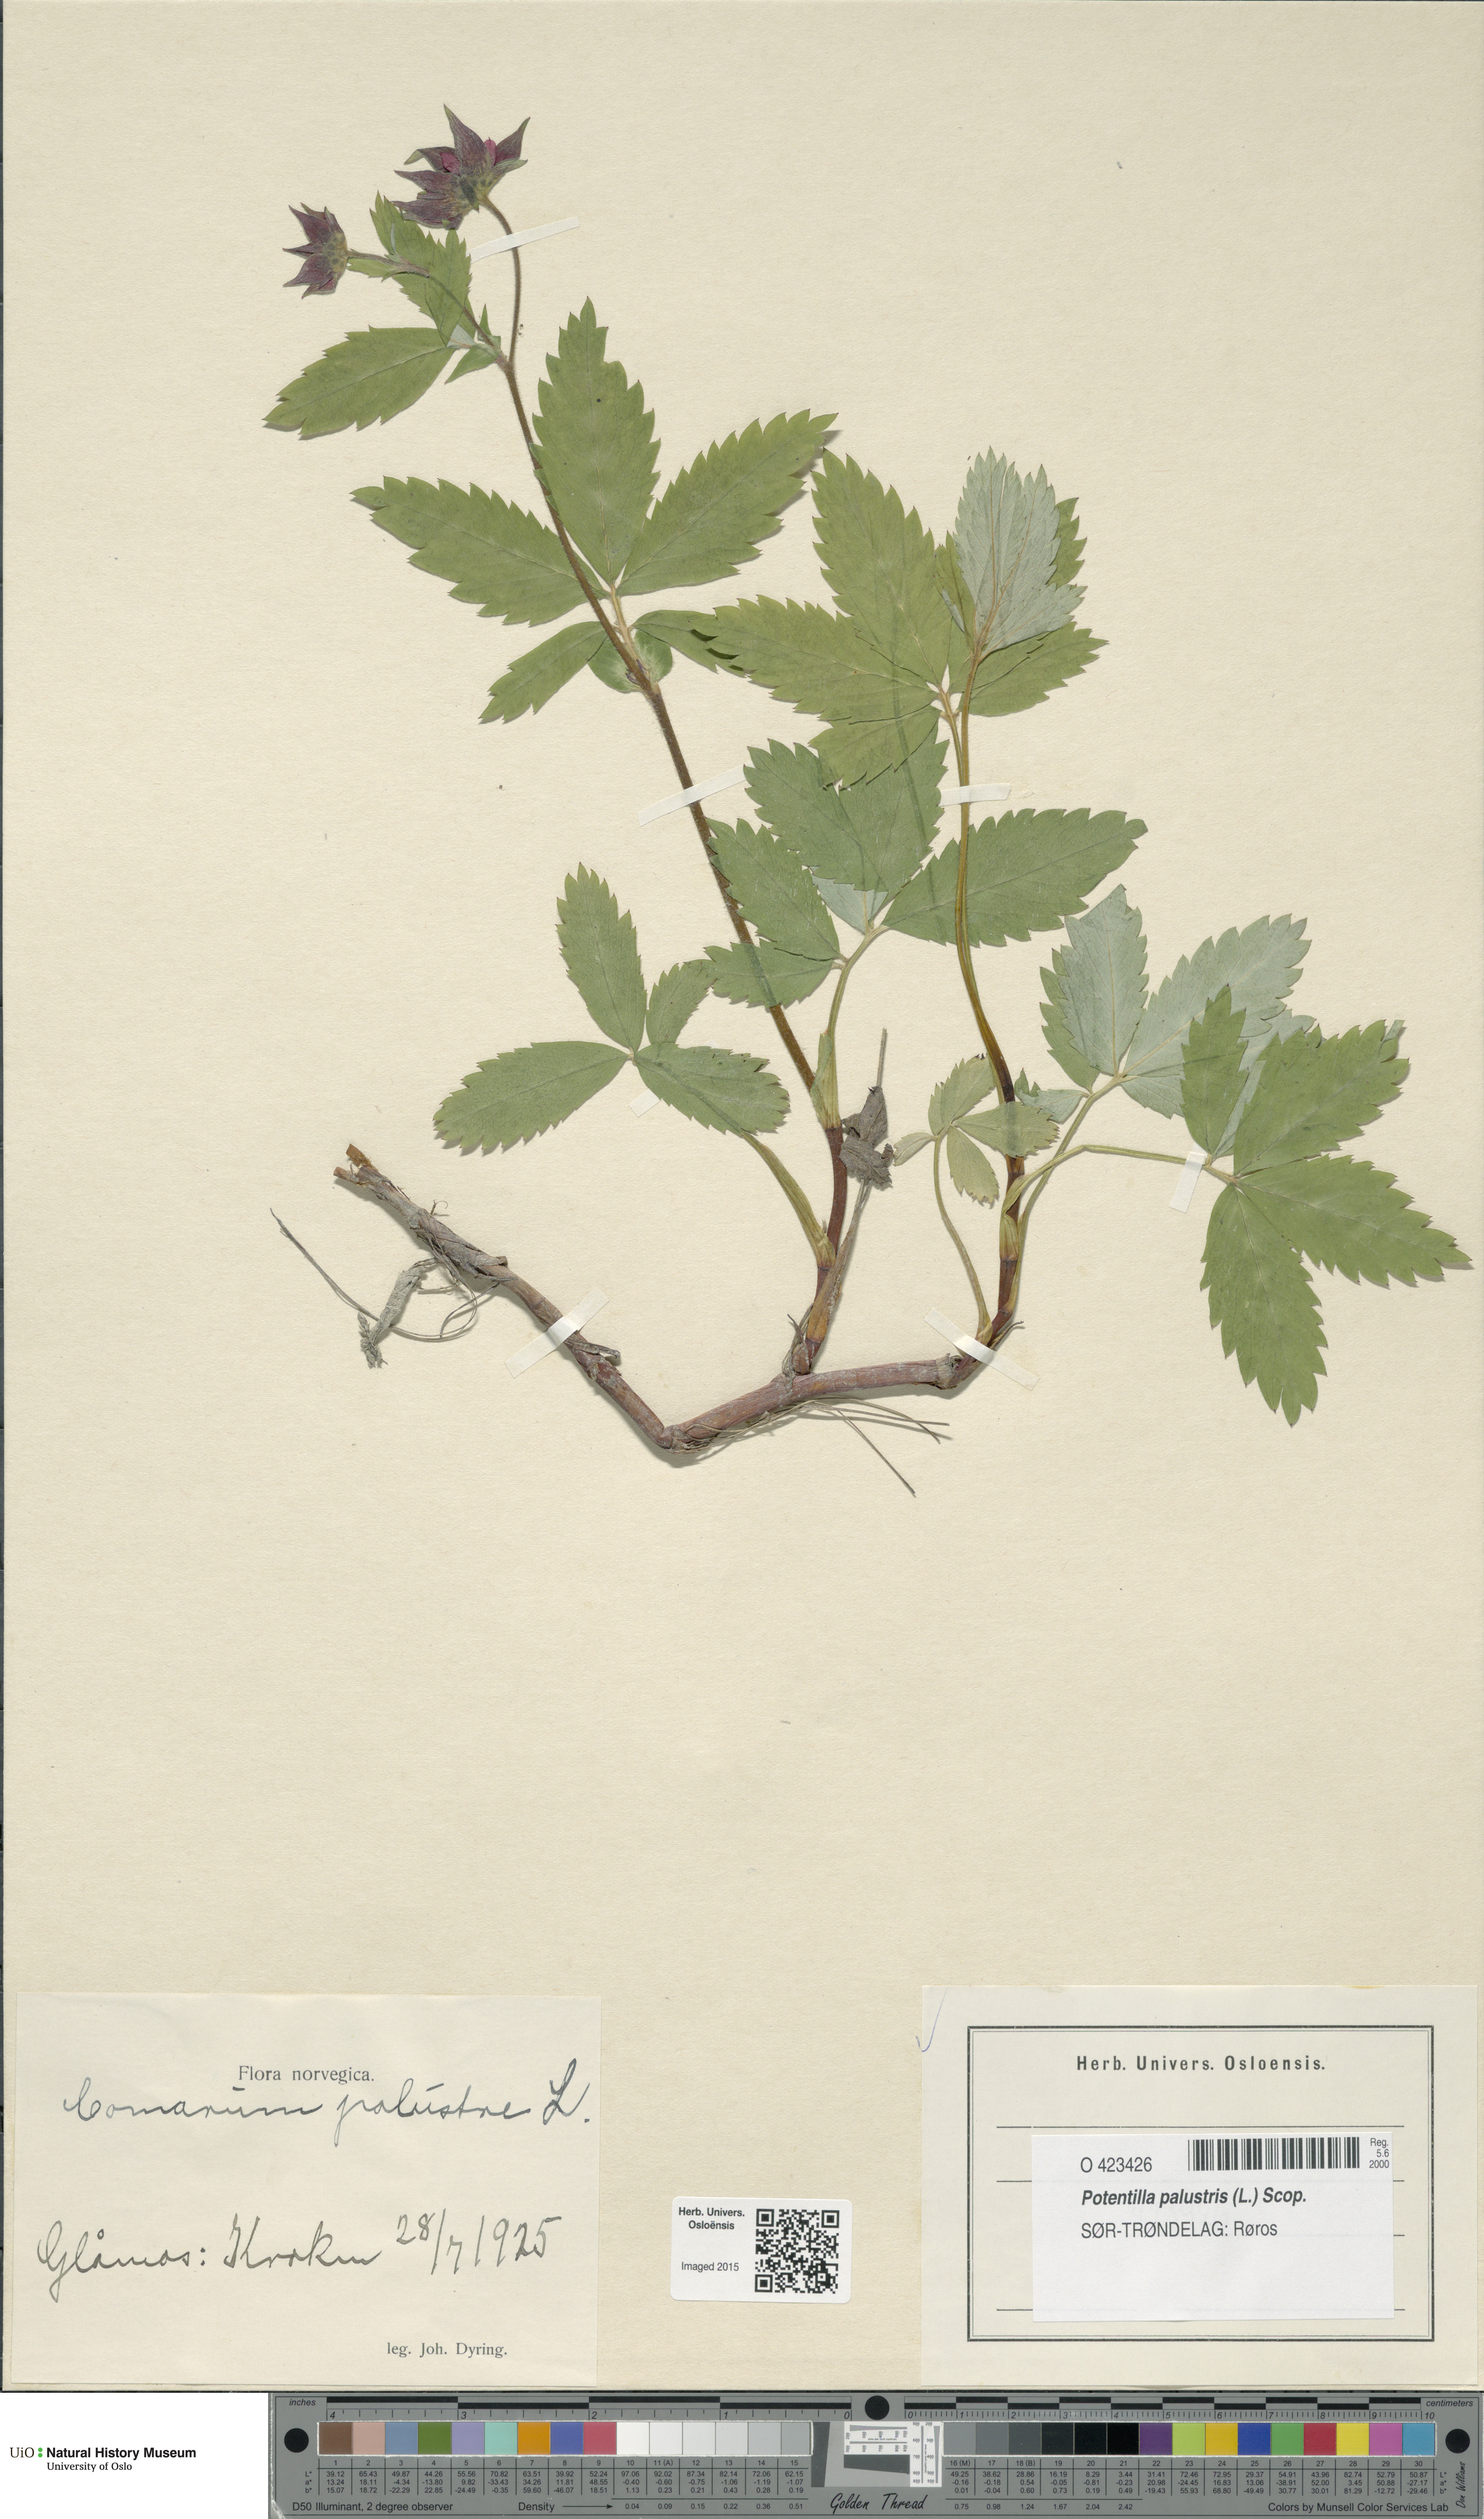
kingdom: Plantae
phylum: Tracheophyta
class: Magnoliopsida
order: Rosales
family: Rosaceae
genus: Comarum
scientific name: Comarum palustre
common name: Marsh cinquefoil
